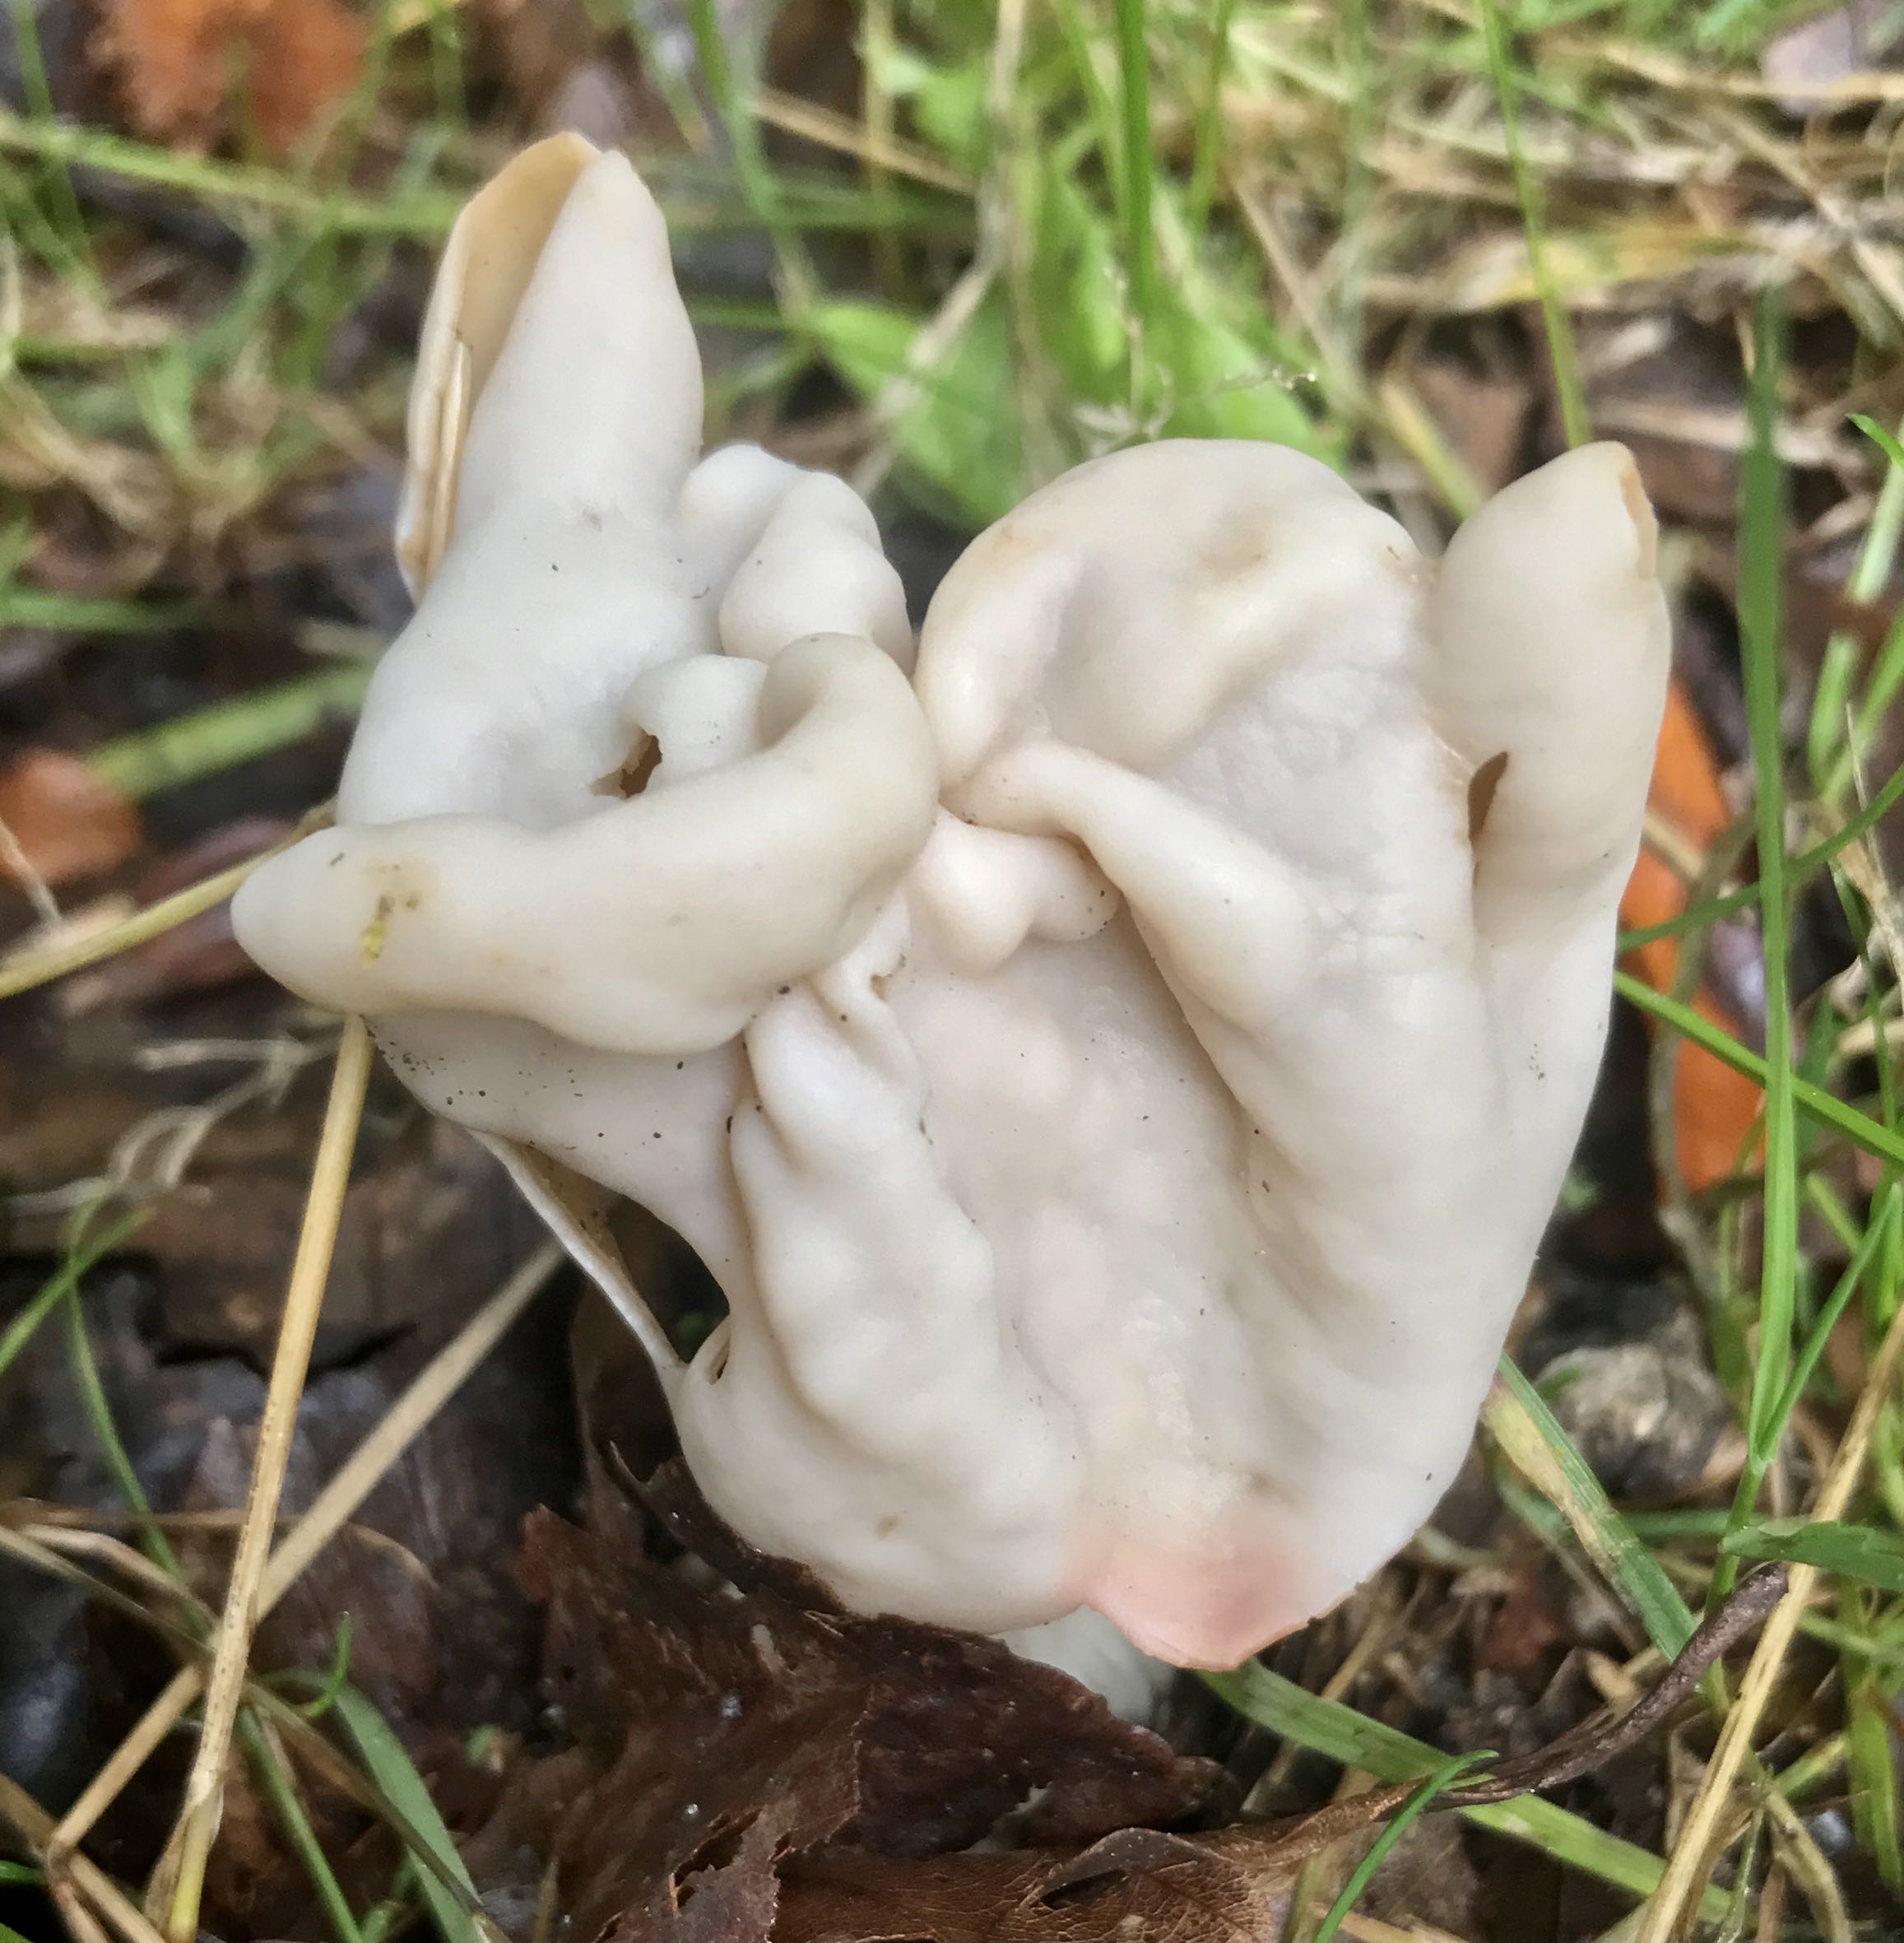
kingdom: Fungi
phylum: Ascomycota
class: Pezizomycetes
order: Pezizales
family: Helvellaceae
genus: Helvella
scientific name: Helvella crispa
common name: kruset foldhat
